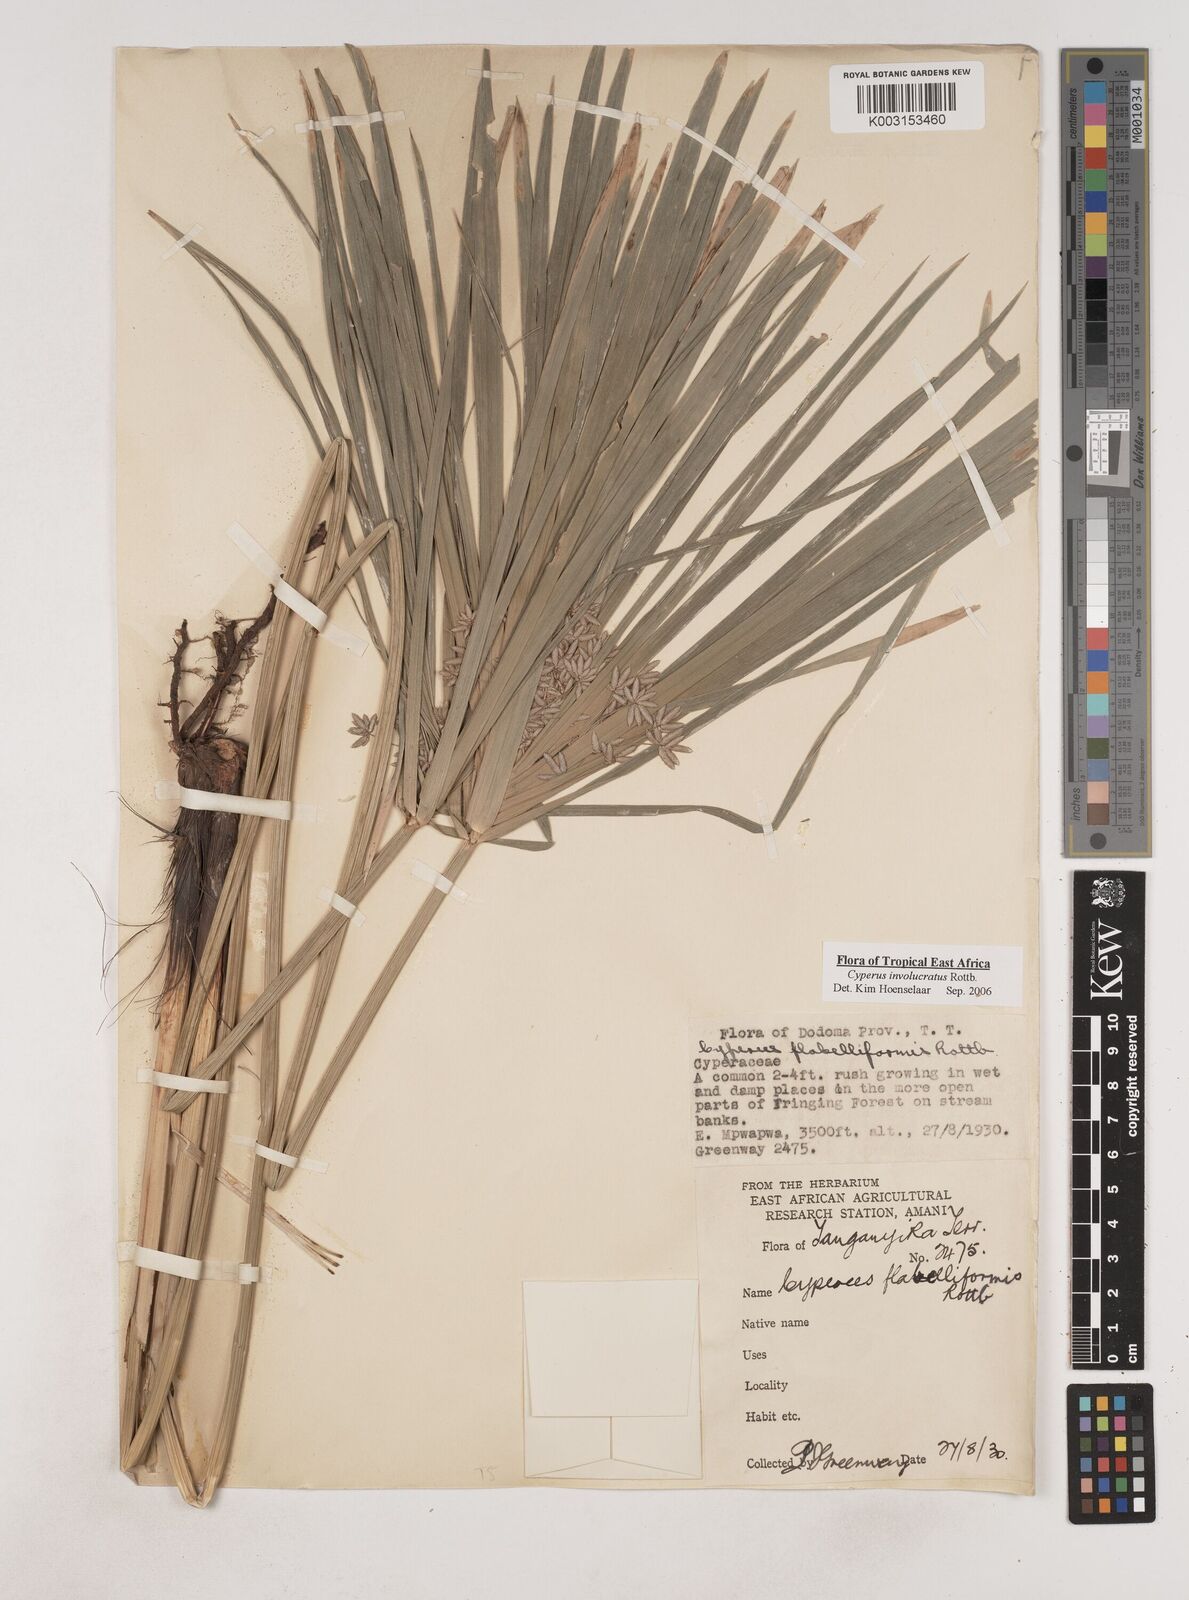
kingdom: Plantae
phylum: Tracheophyta
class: Liliopsida
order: Poales
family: Cyperaceae
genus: Cyperus
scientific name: Cyperus alternifolius
